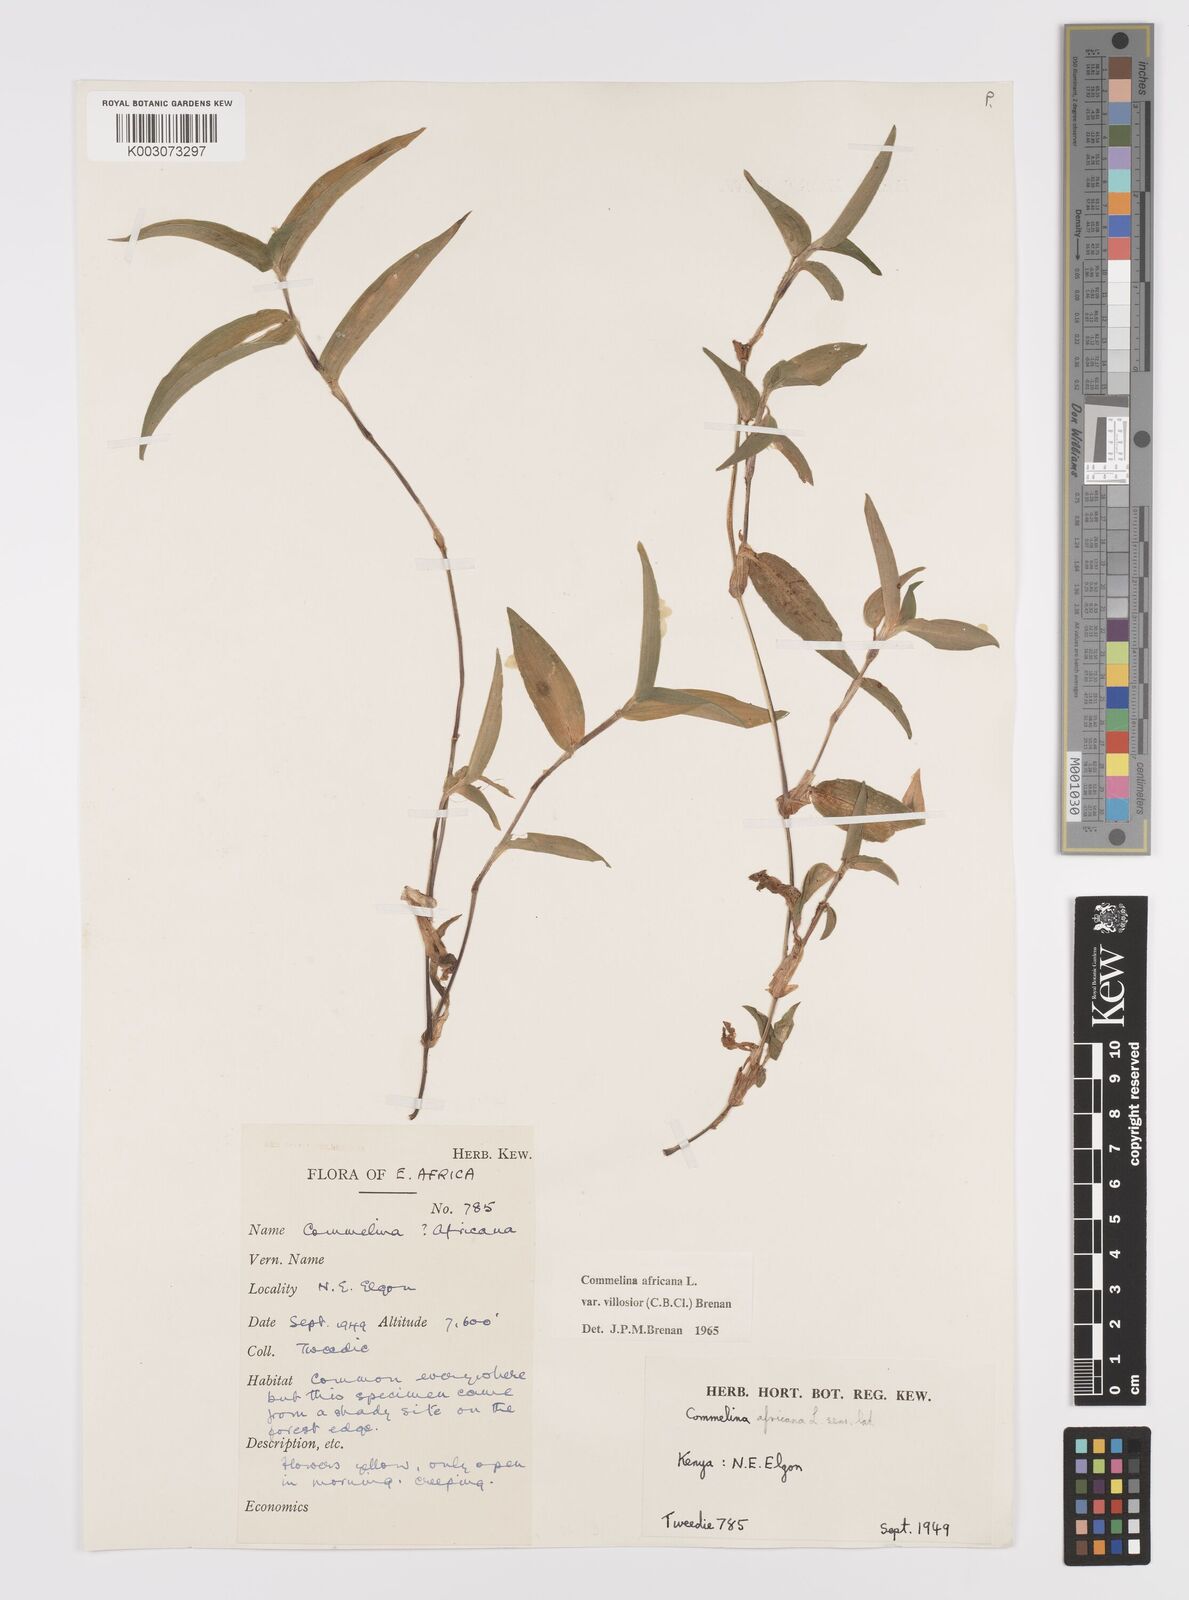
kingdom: Plantae
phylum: Tracheophyta
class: Liliopsida
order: Commelinales
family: Commelinaceae
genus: Commelina
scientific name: Commelina africana
